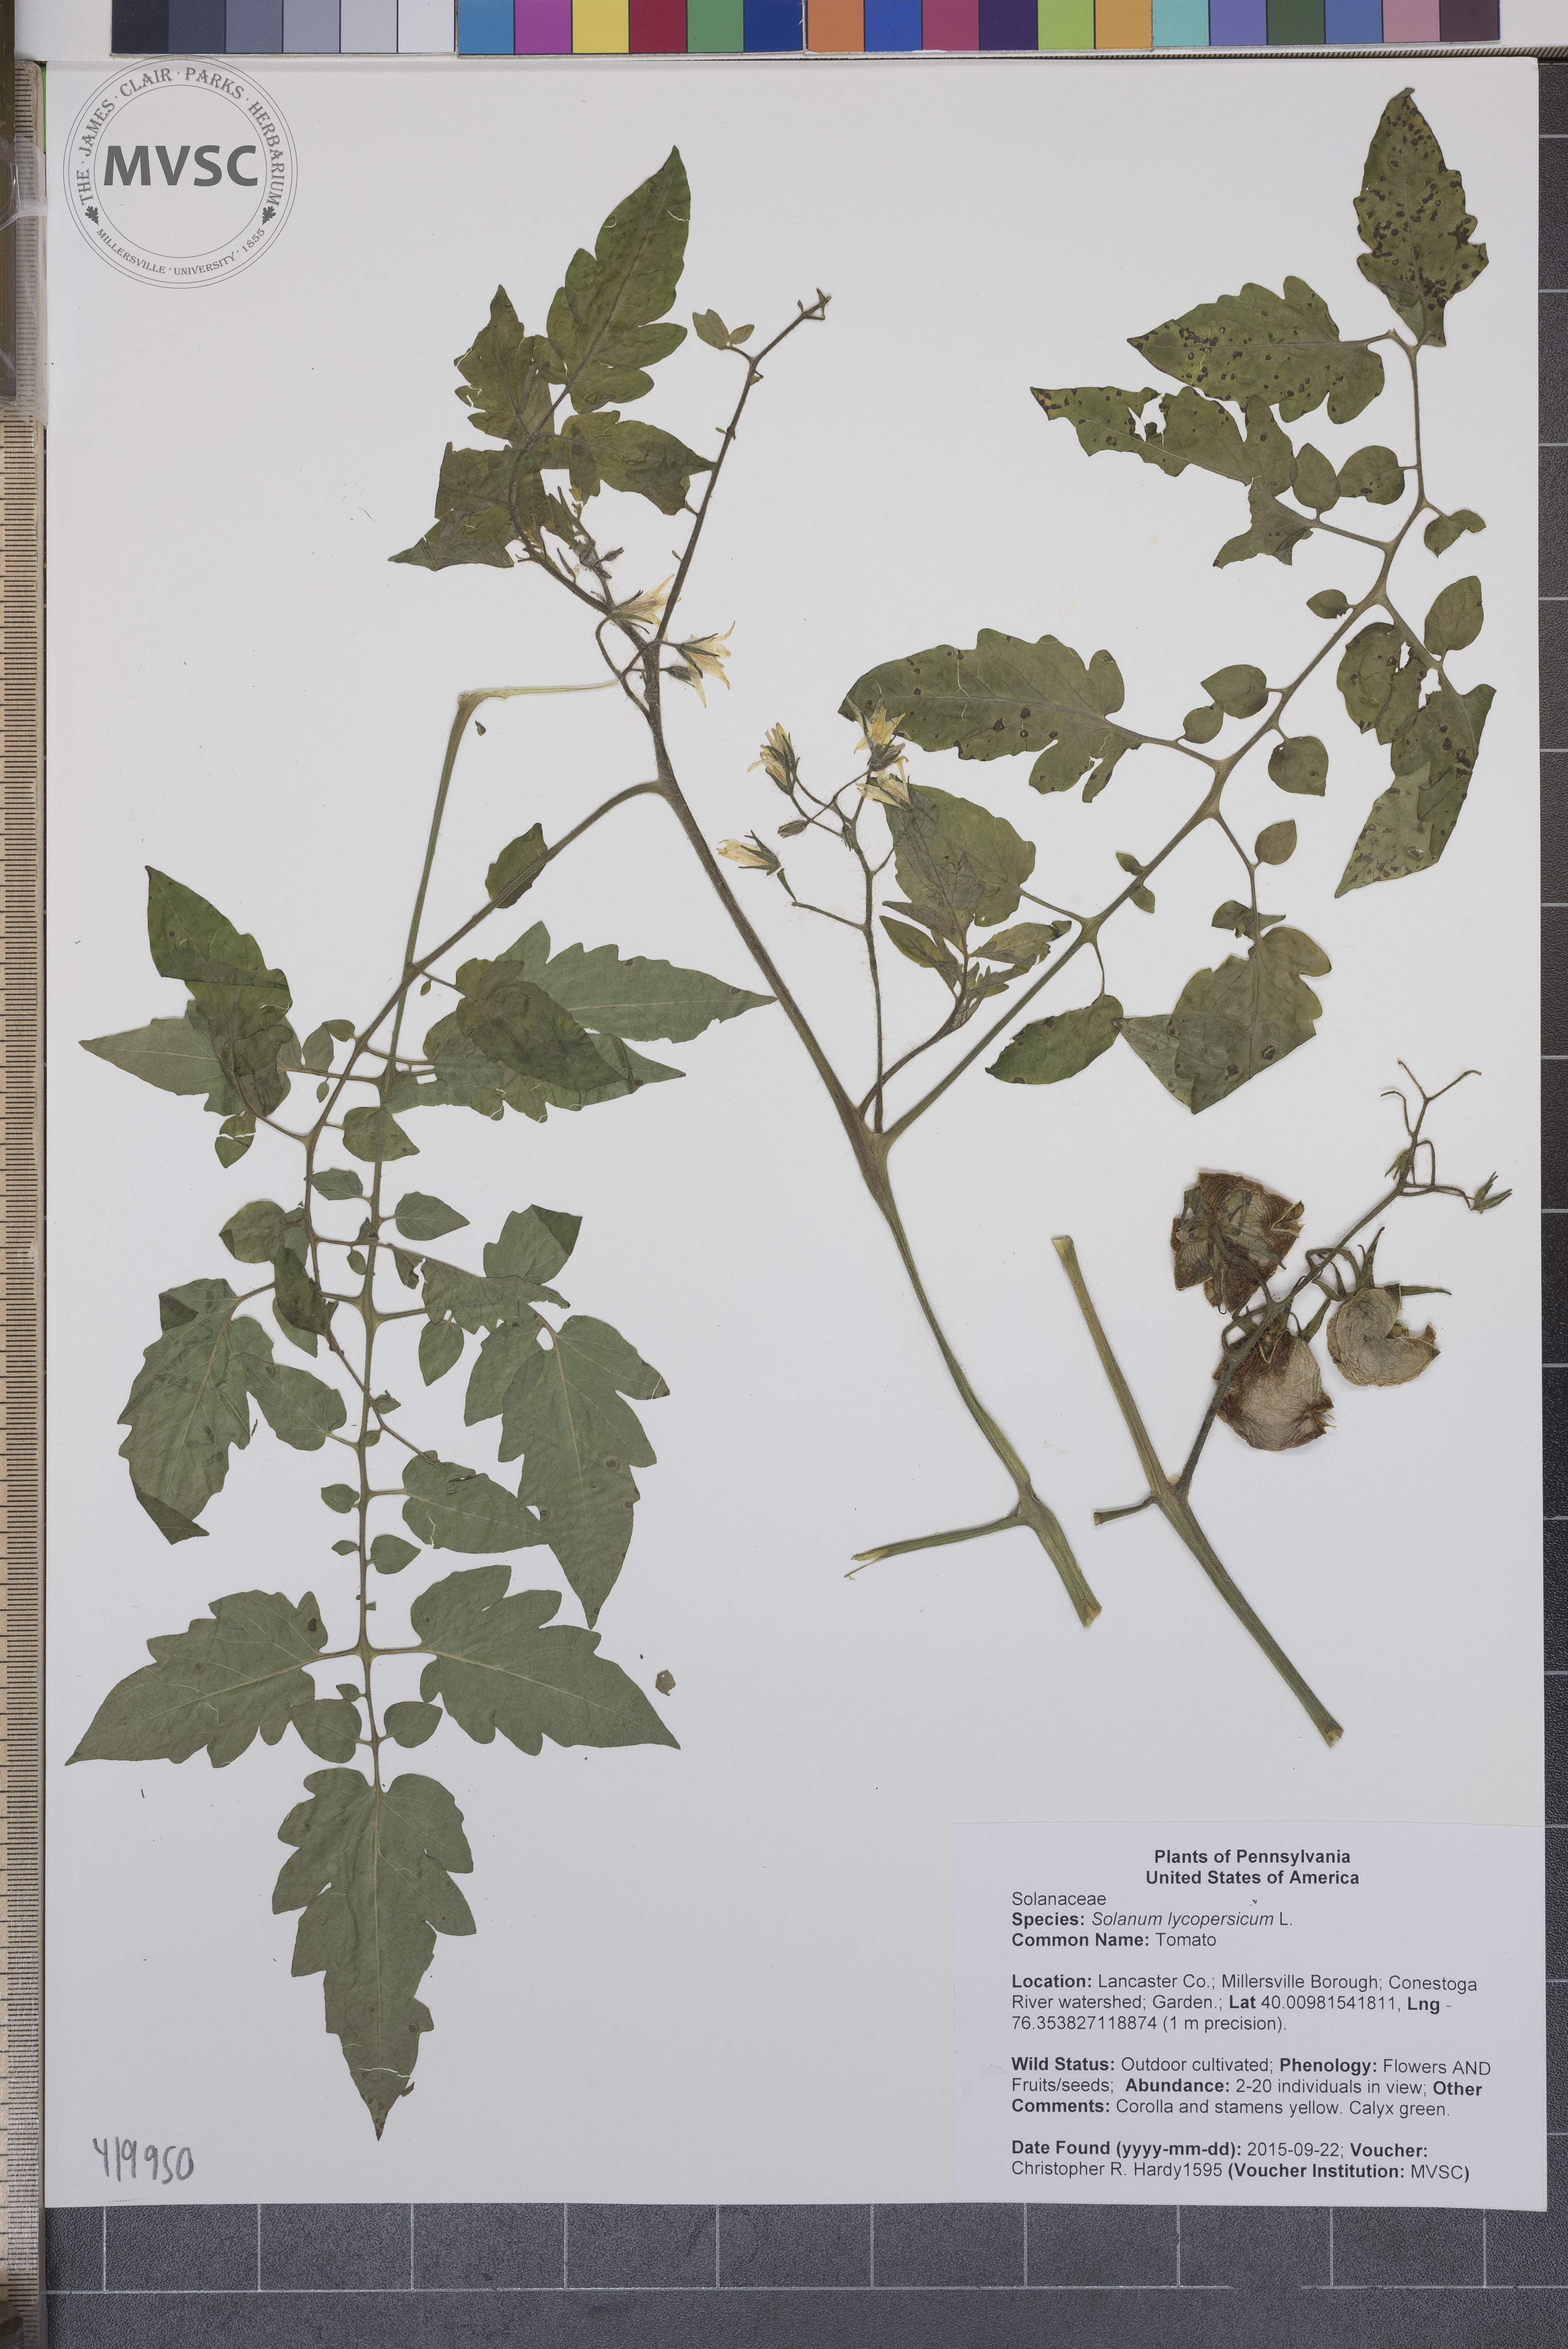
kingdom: Plantae
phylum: Tracheophyta
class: Magnoliopsida
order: Solanales
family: Solanaceae
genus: Solanum
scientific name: Solanum lycopersicum
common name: Tomato
